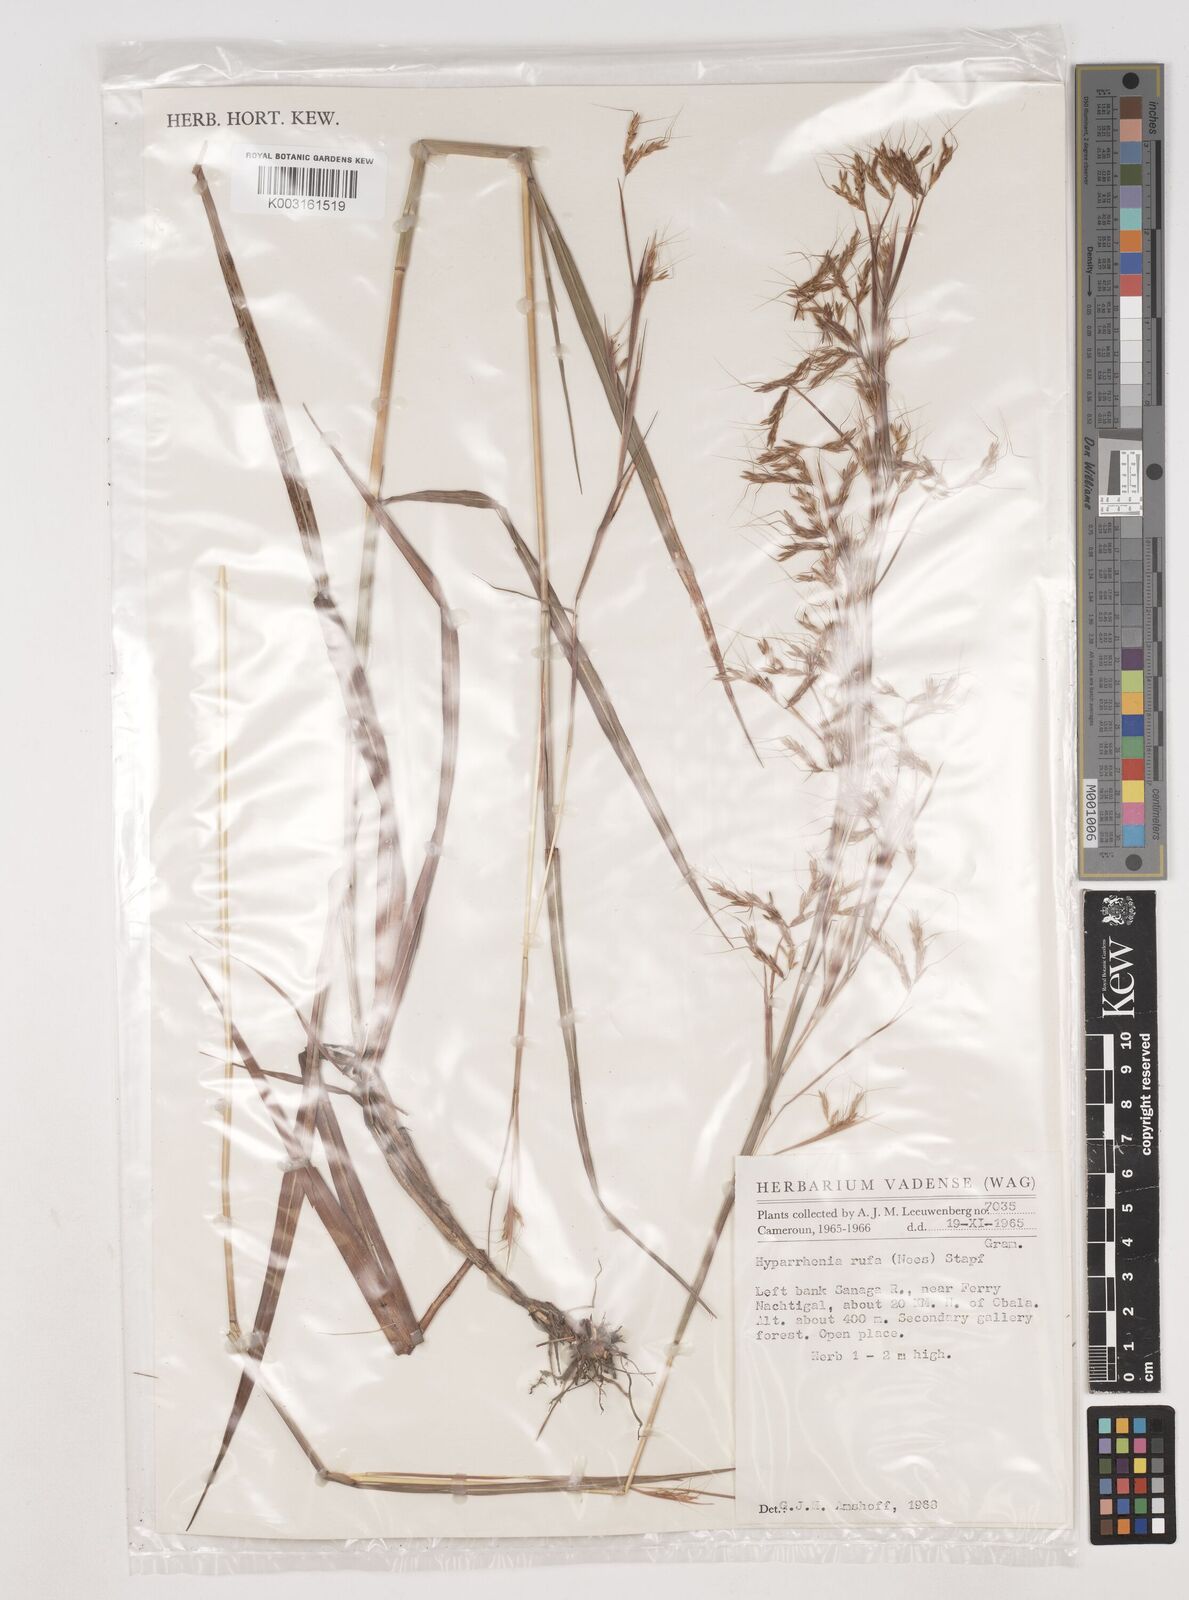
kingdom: Plantae
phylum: Tracheophyta
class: Liliopsida
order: Poales
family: Poaceae
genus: Hyparrhenia
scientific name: Hyparrhenia rufa
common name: Jaraguagrass
